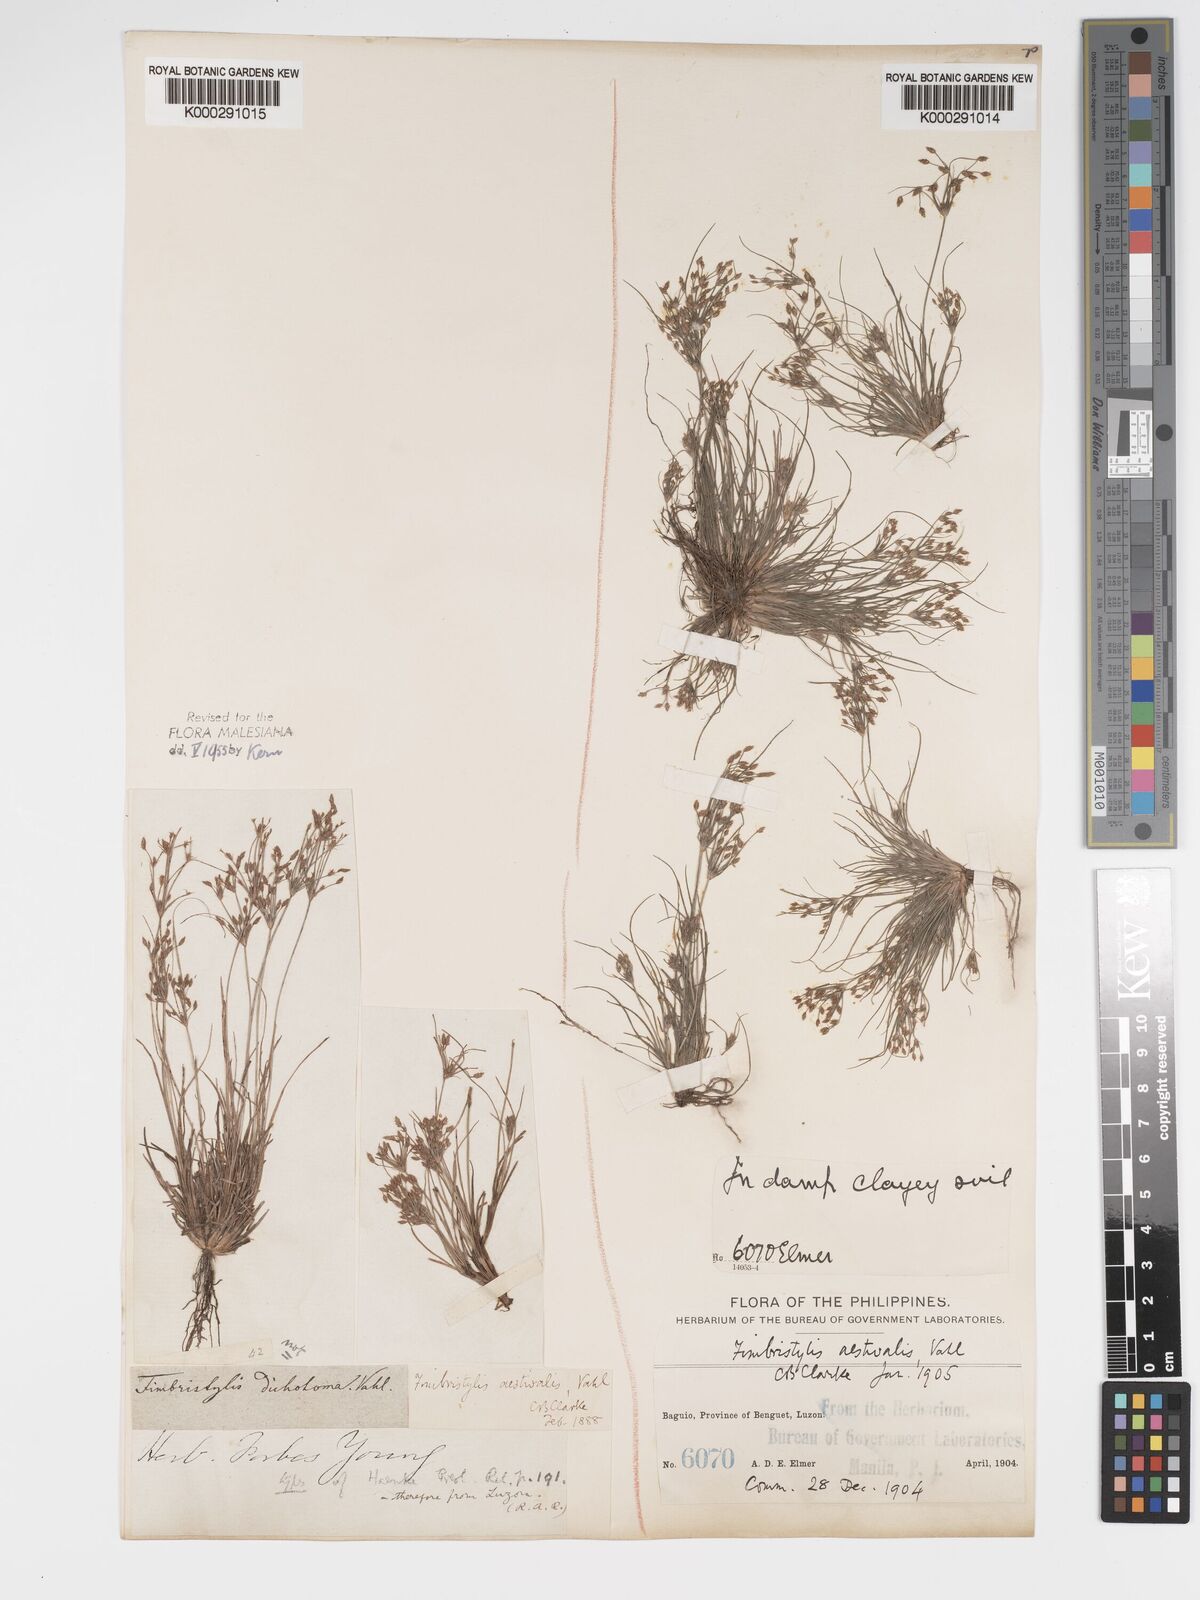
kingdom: Plantae
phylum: Tracheophyta
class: Liliopsida
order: Poales
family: Cyperaceae
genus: Fimbristylis
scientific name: Fimbristylis aestivalis
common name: Summer fimbry
